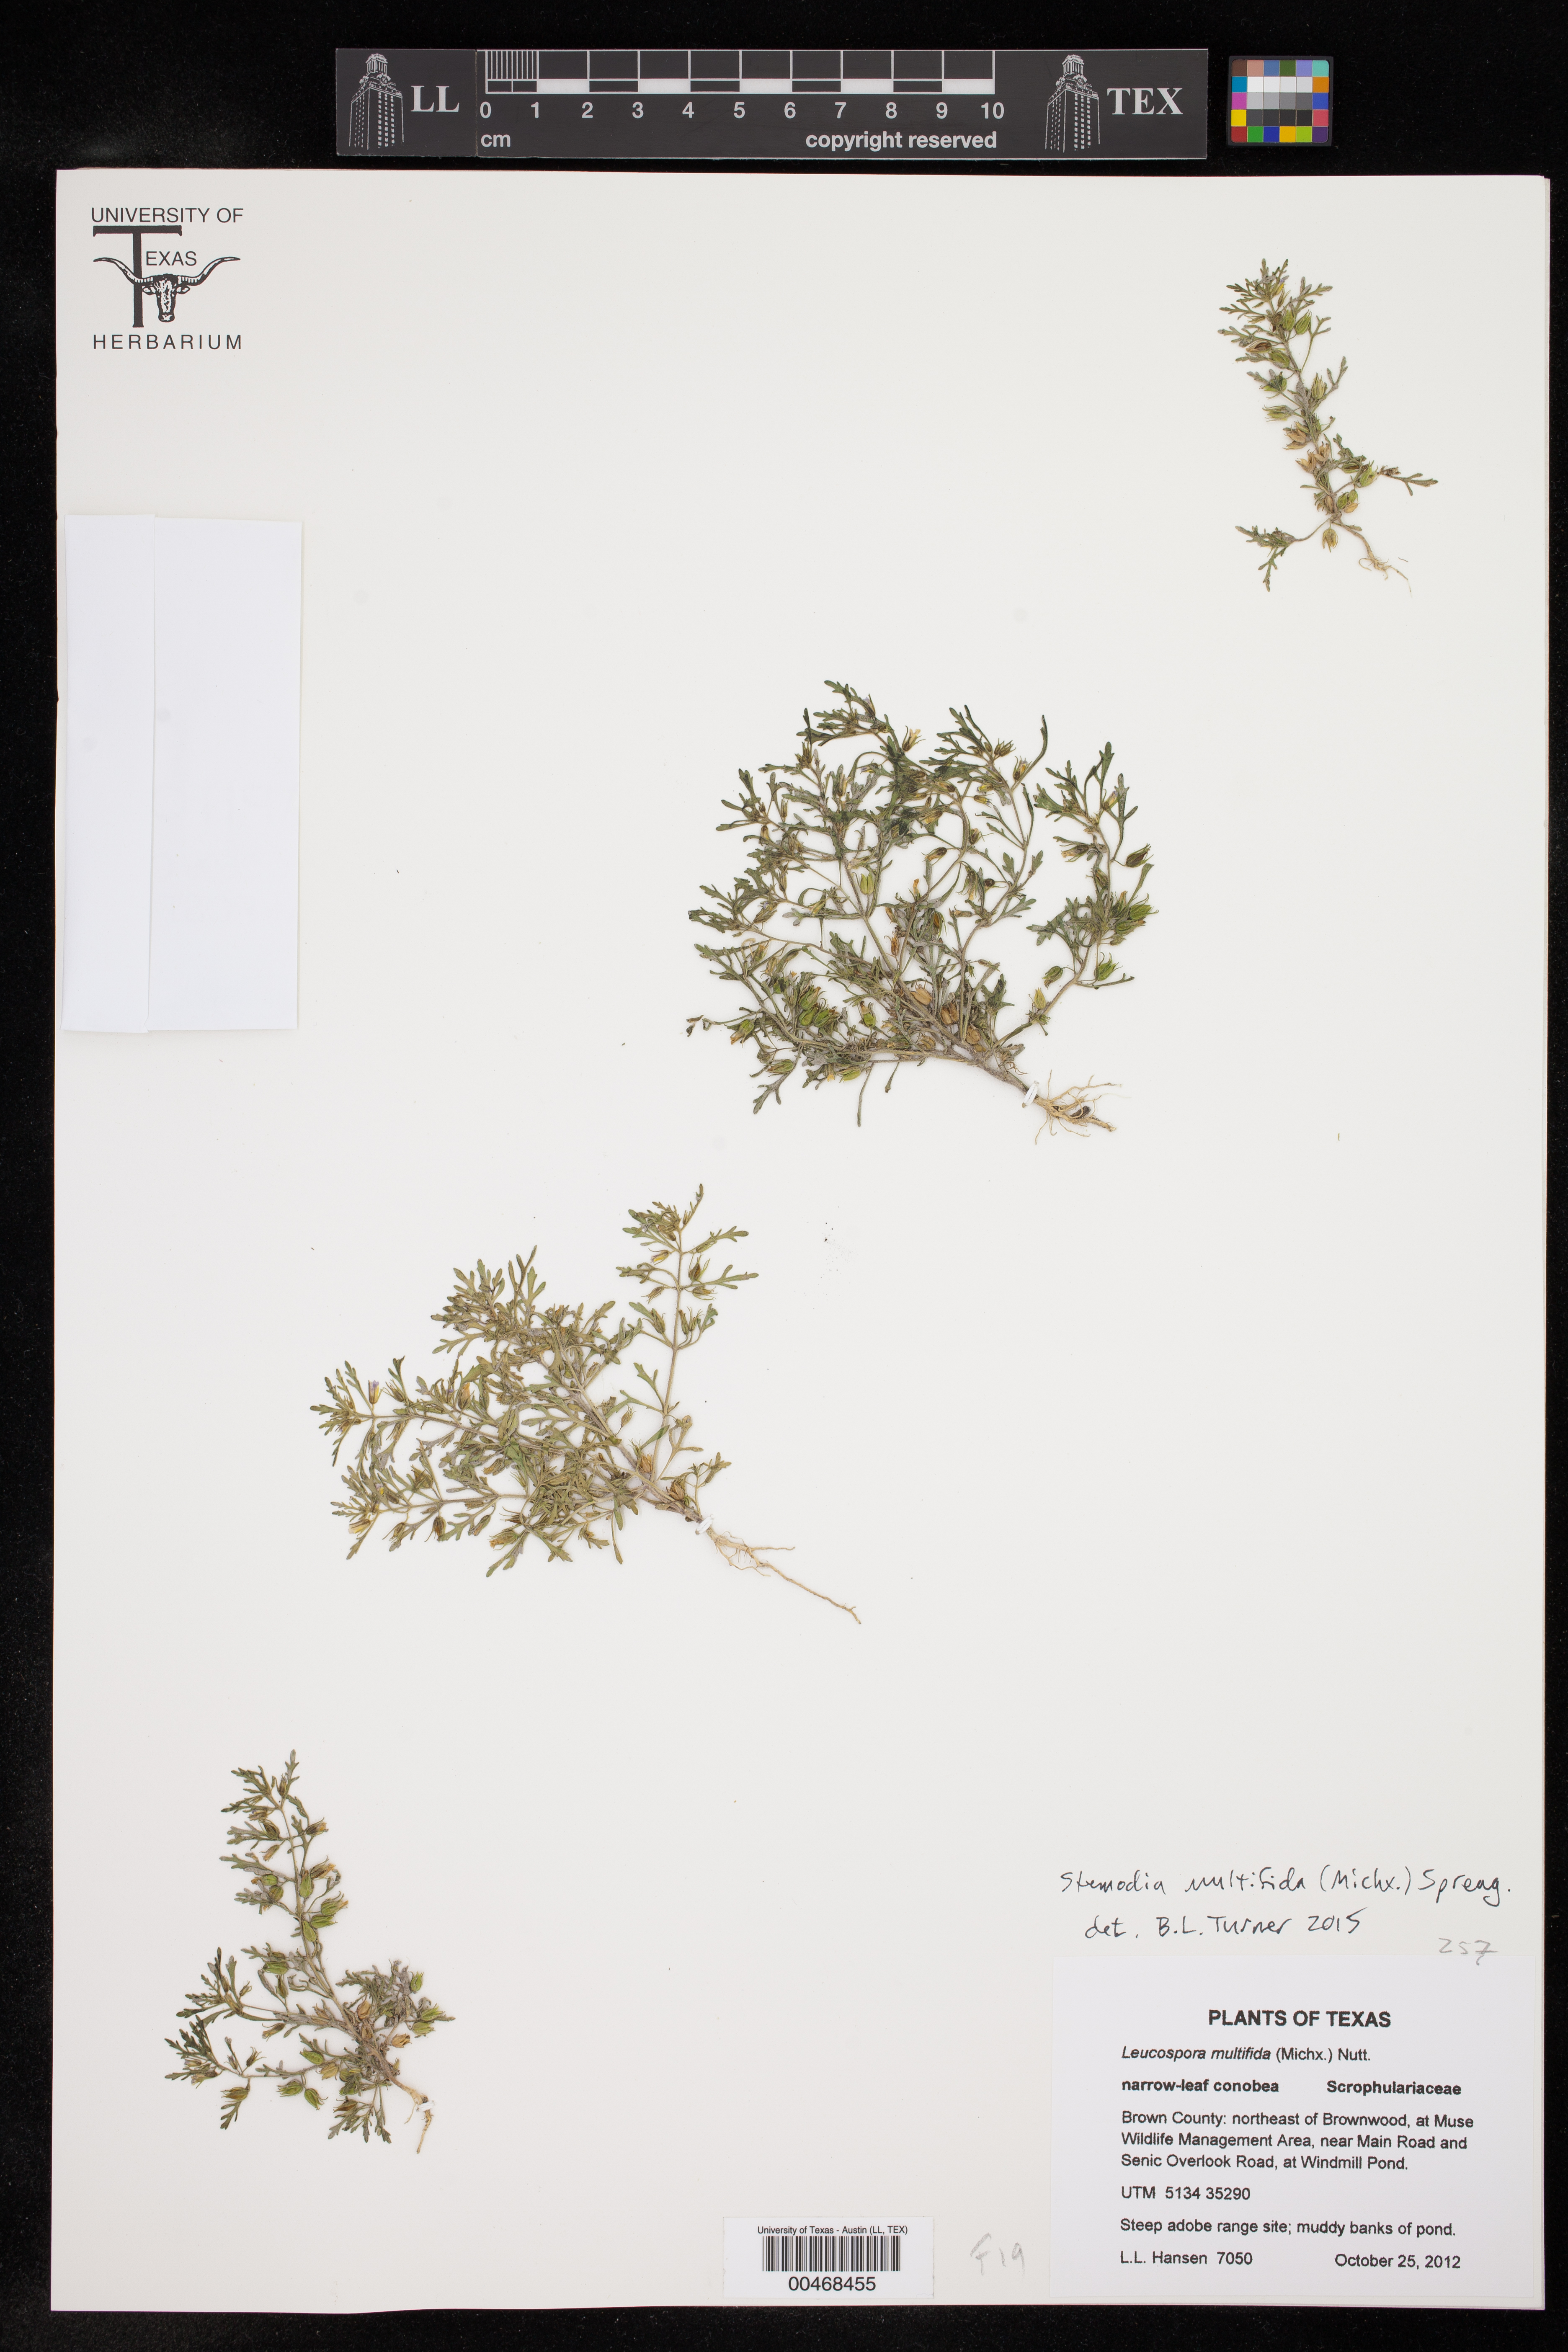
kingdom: Plantae
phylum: Tracheophyta
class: Magnoliopsida
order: Lamiales
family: Plantaginaceae
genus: Leucospora
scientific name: Leucospora multifida
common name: Narrow-leaf paleseed
